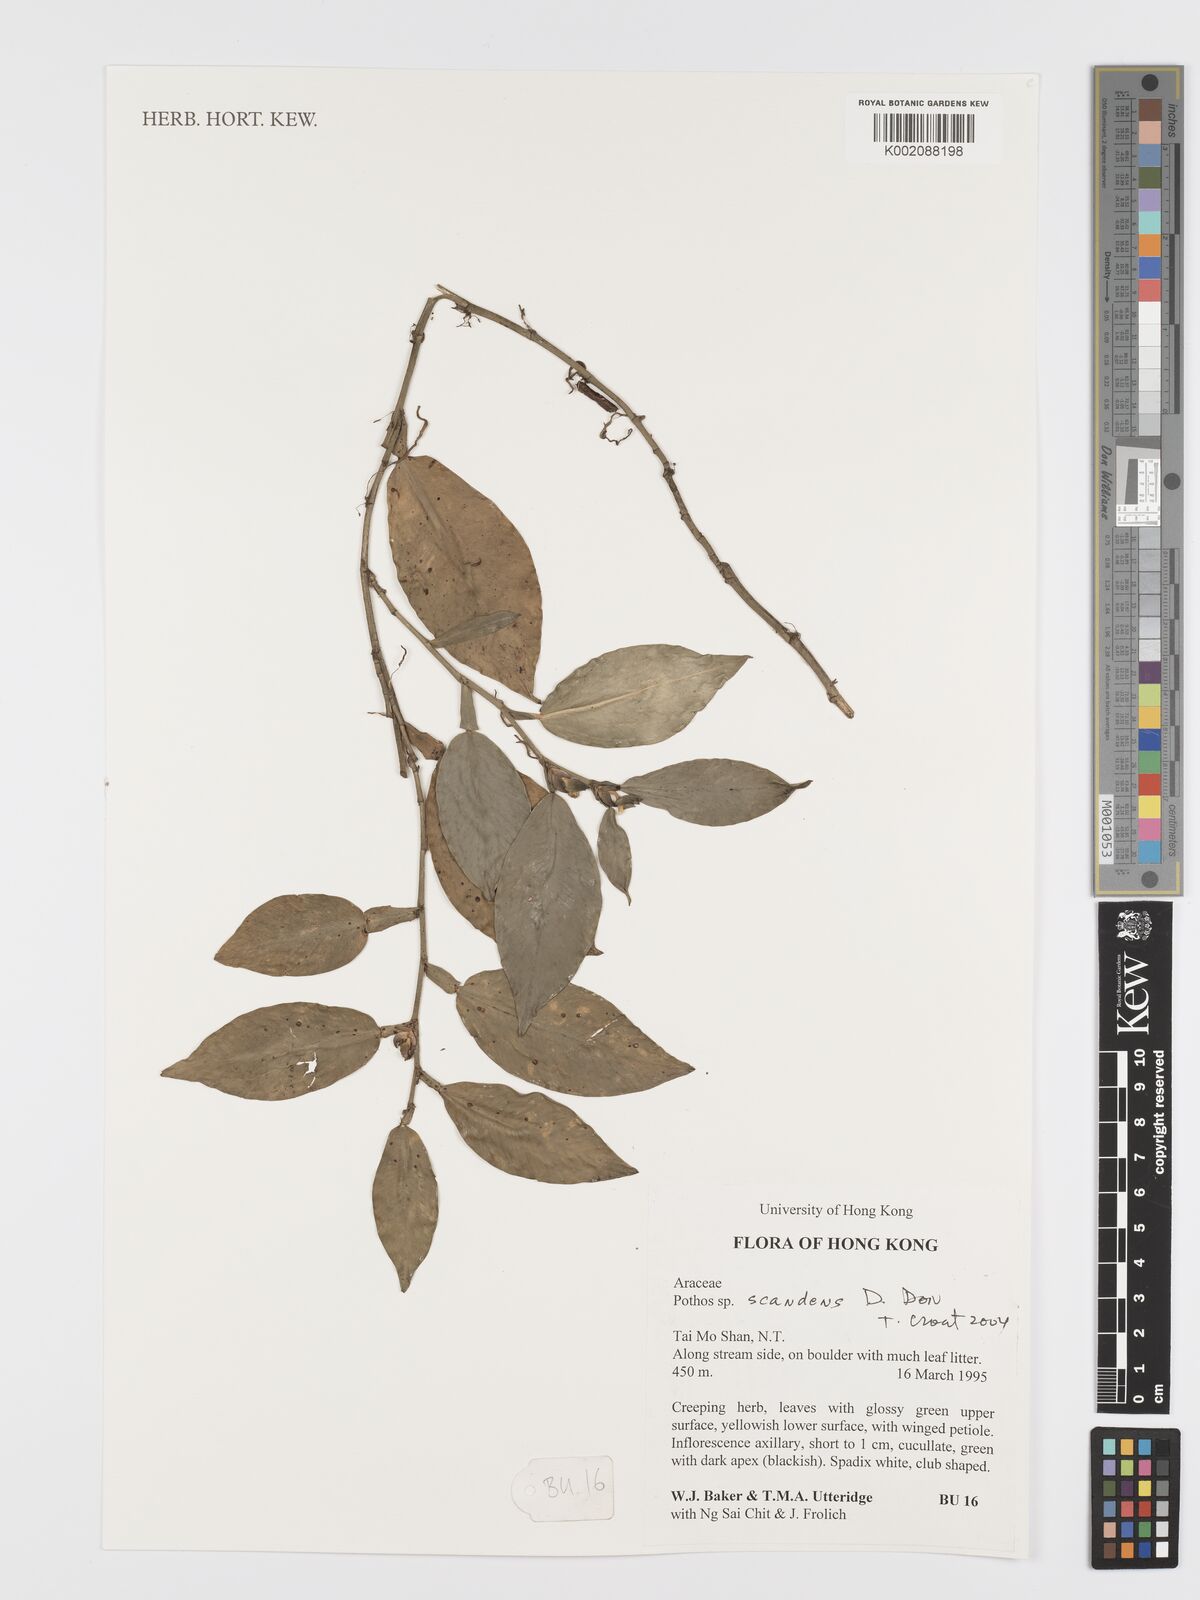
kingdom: Plantae
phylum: Tracheophyta
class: Liliopsida
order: Alismatales
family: Araceae
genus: Pothos
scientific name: Pothos scandens
